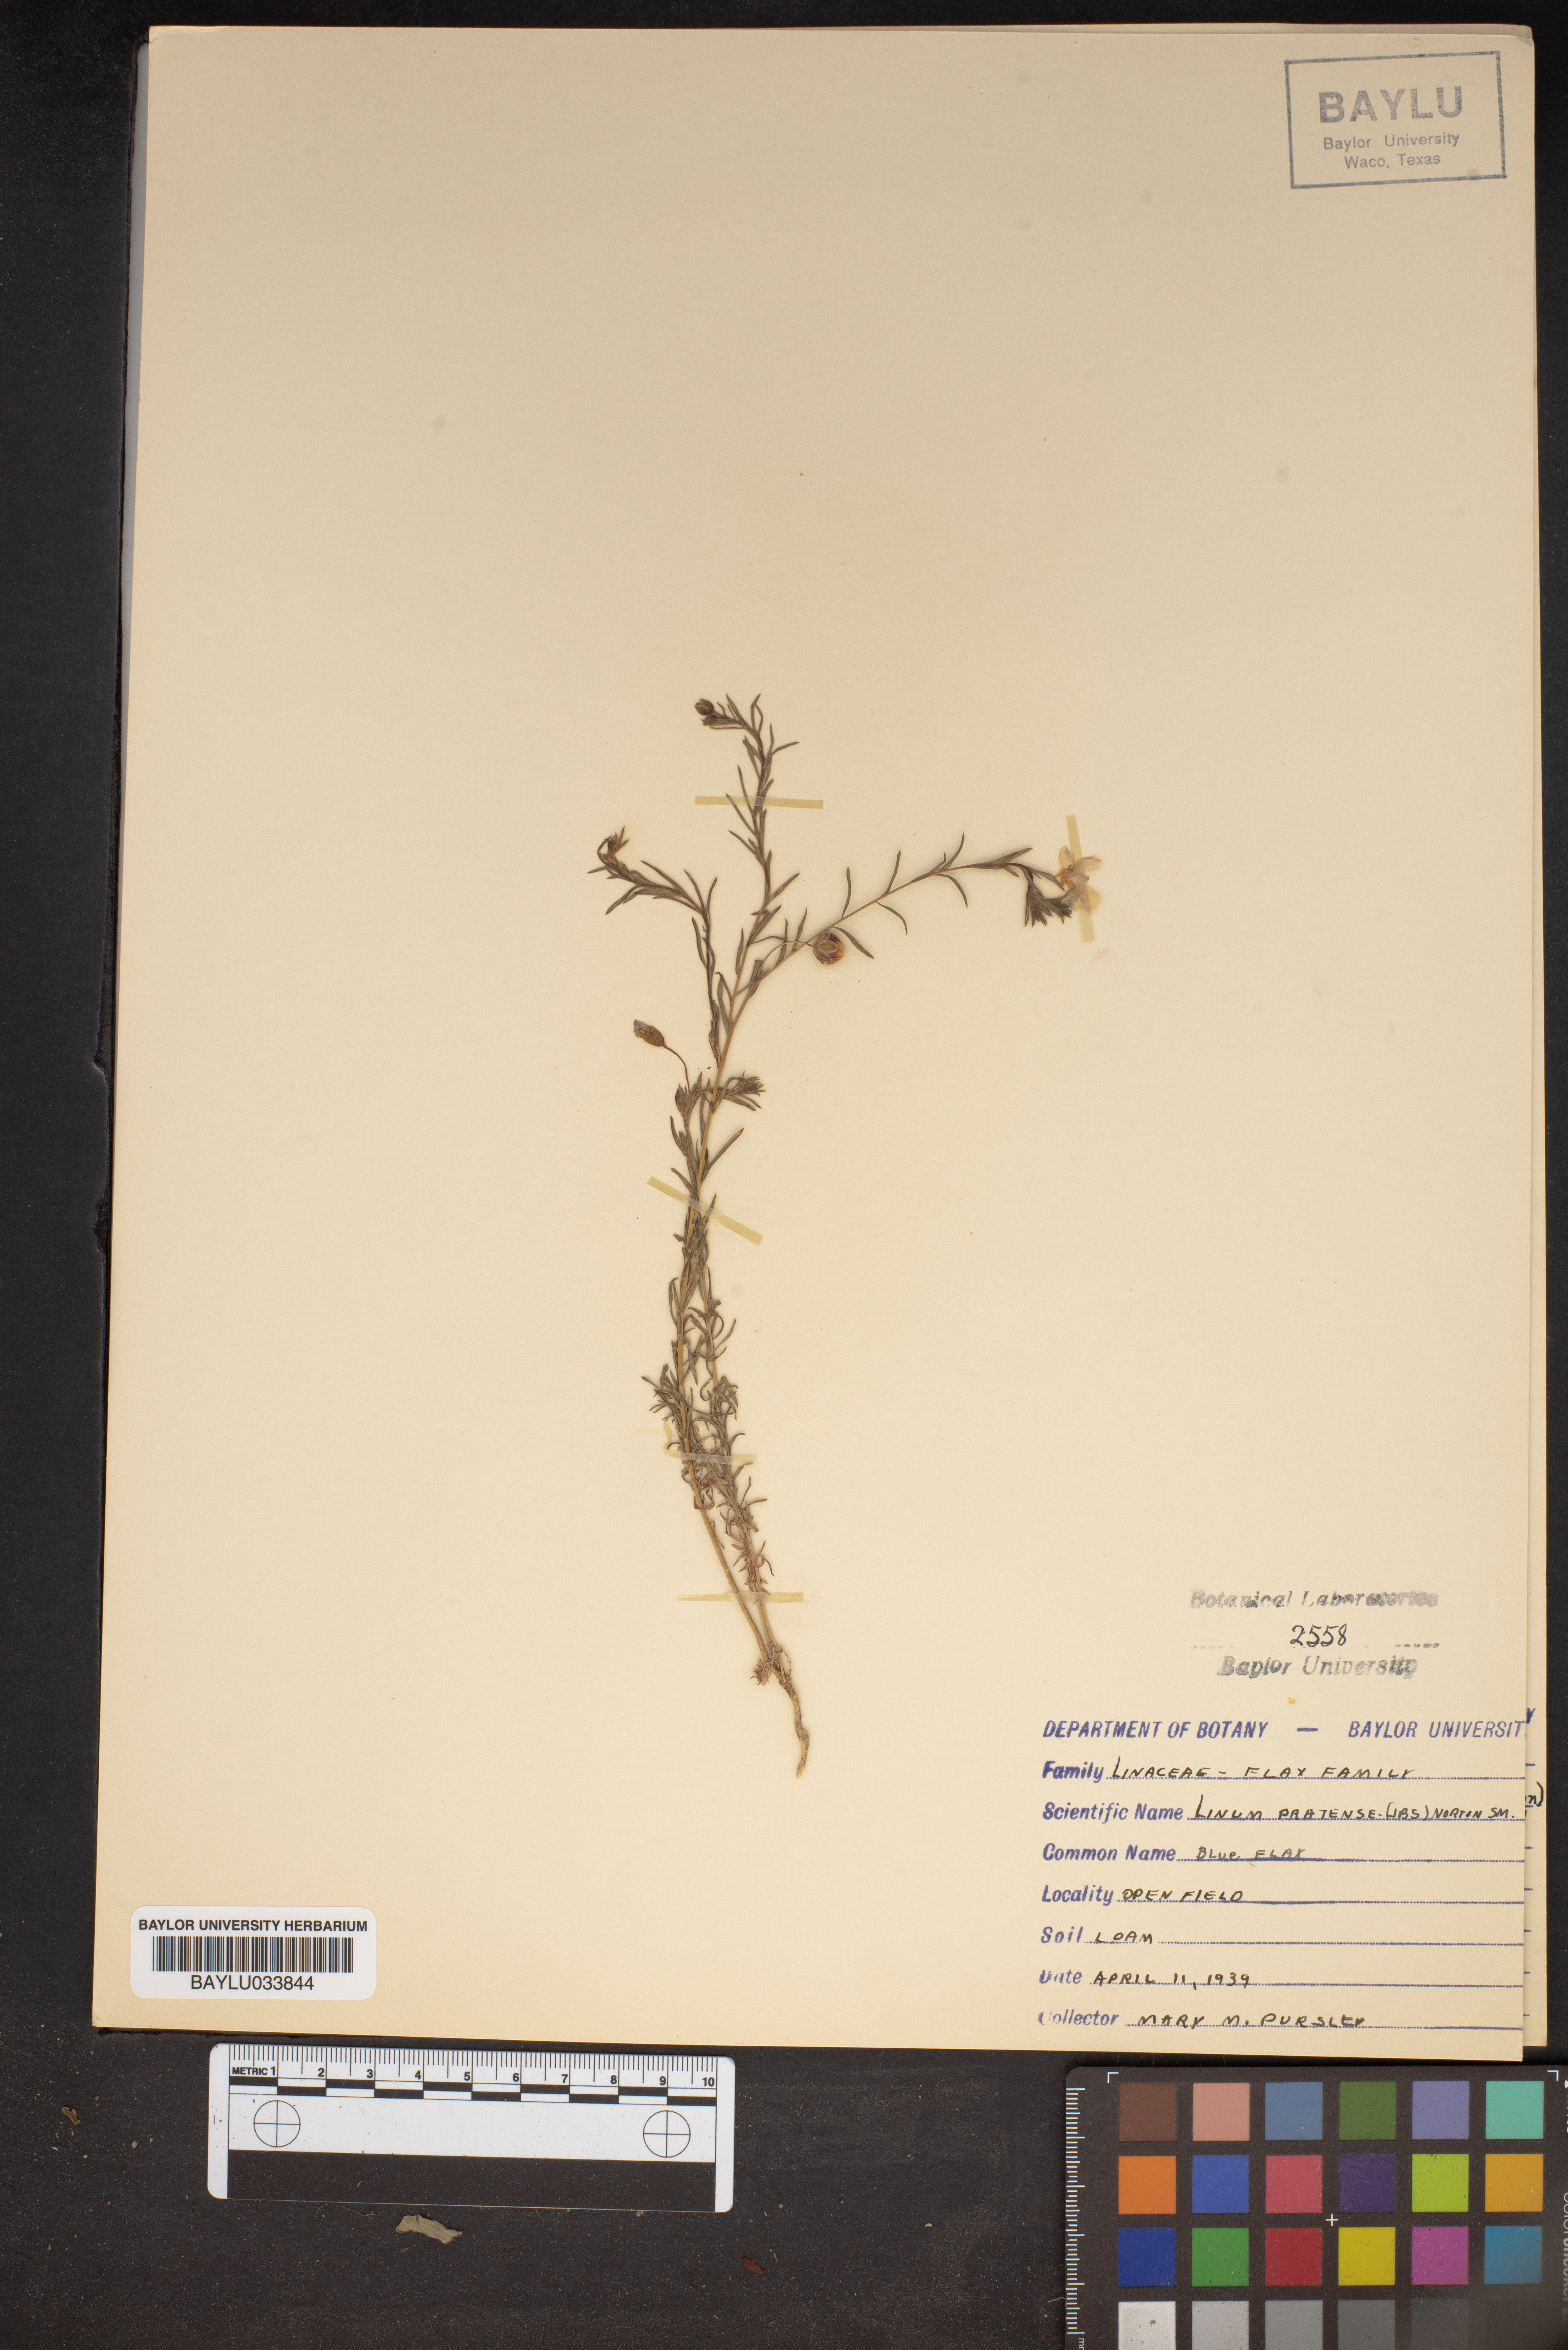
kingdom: Plantae
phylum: Tracheophyta
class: Magnoliopsida
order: Malpighiales
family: Linaceae
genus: Linum
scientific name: Linum pratense
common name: Norton's flax
